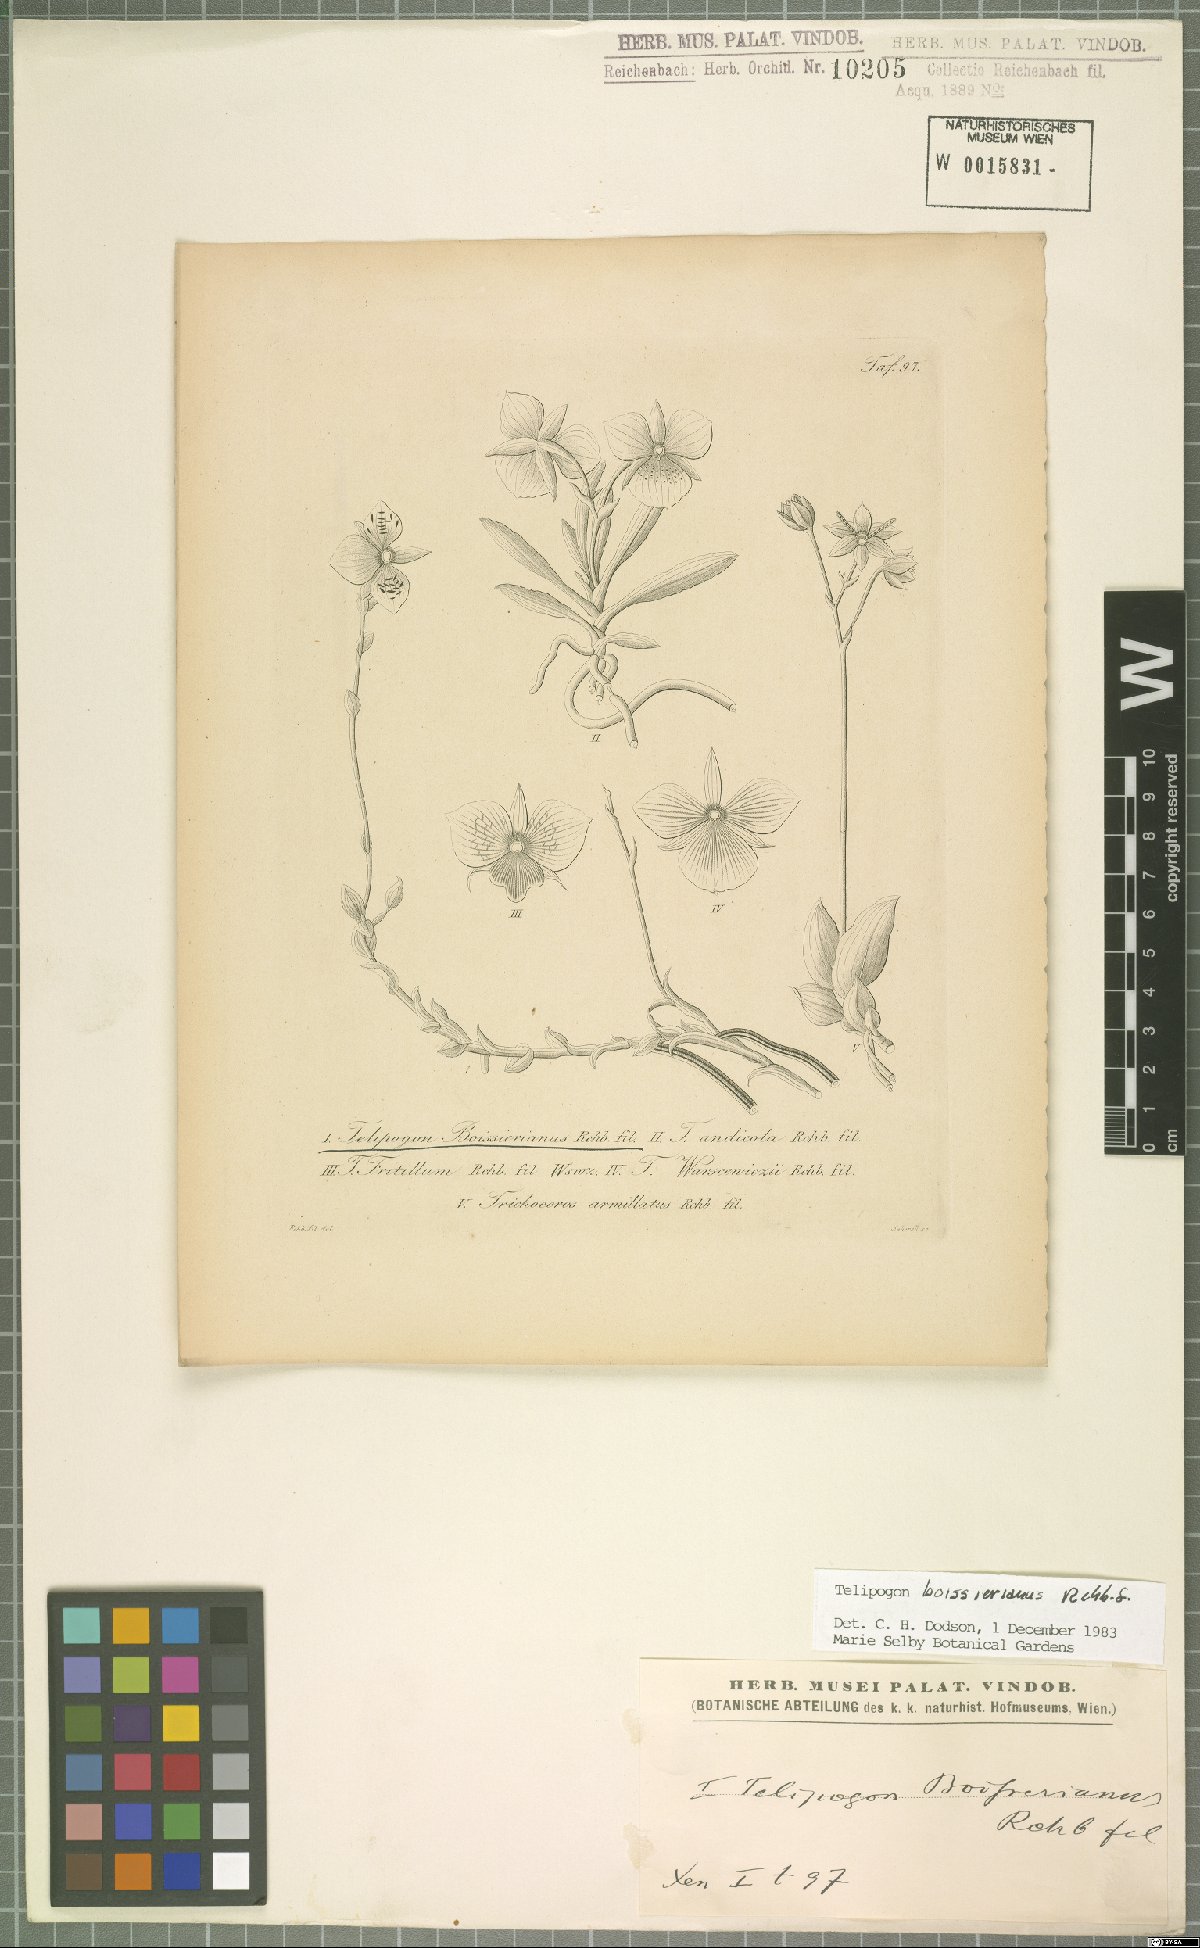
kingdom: Plantae
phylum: Tracheophyta
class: Liliopsida
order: Asparagales
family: Orchidaceae
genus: Telipogon
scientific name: Telipogon boissierianus
